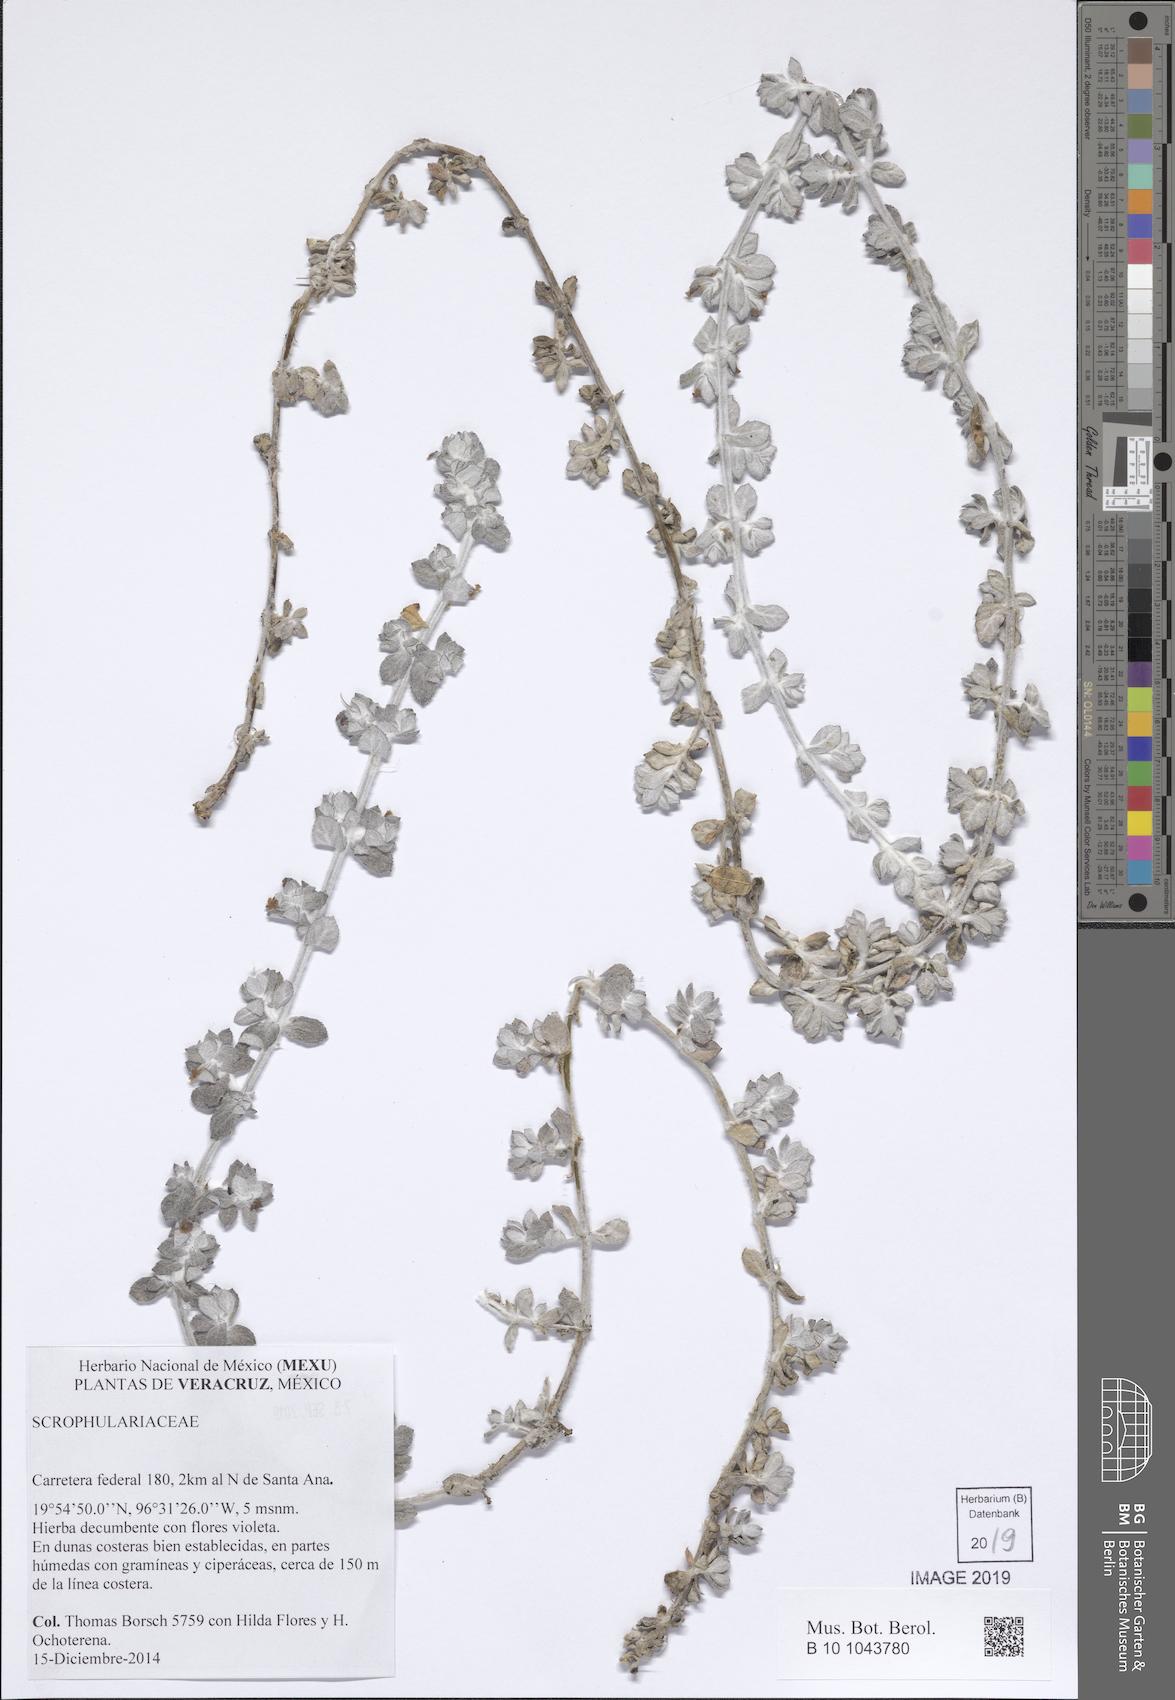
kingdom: Plantae
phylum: Tracheophyta
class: Magnoliopsida
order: Lamiales
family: Scrophulariaceae
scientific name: Scrophulariaceae
